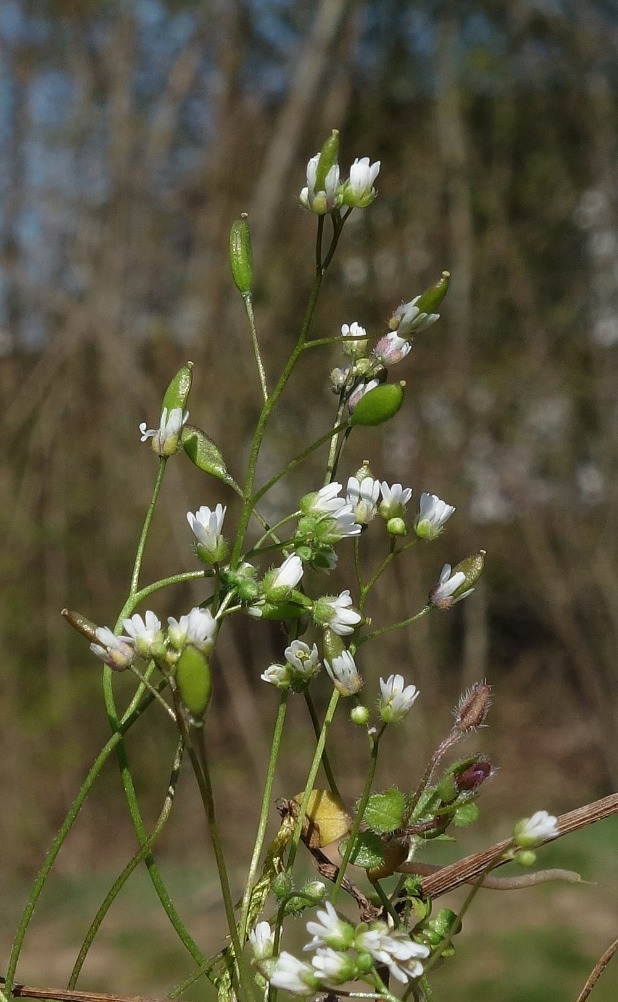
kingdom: Plantae
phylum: Tracheophyta
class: Magnoliopsida
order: Brassicales
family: Brassicaceae
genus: Draba
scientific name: Draba verna
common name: Vår-gæslingeblomst
